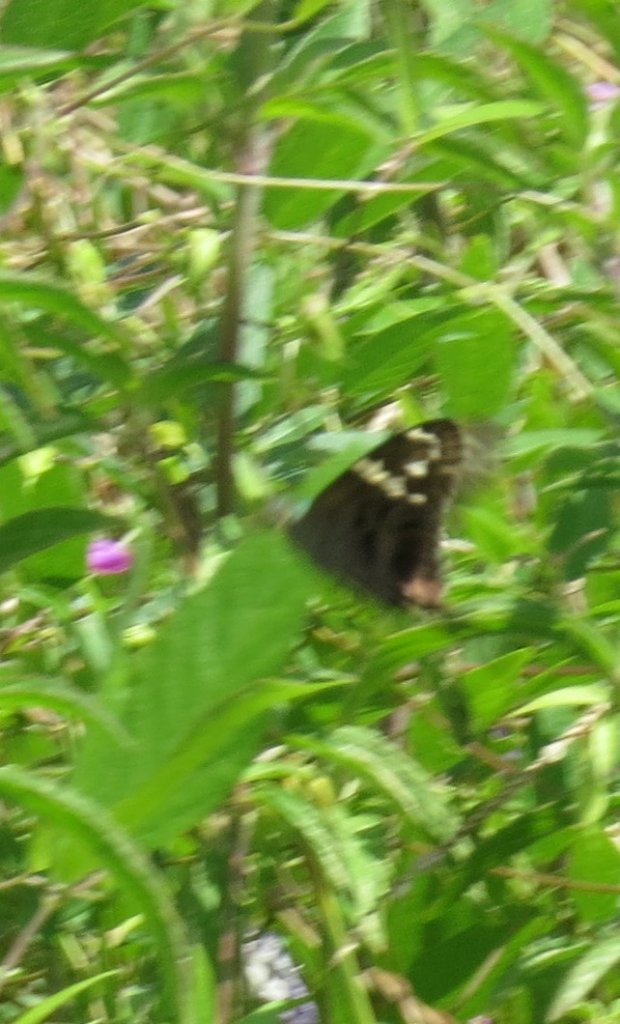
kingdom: Animalia
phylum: Arthropoda
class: Insecta
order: Lepidoptera
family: Hesperiidae
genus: Urbanus
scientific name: Urbanus proteus
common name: Long-tailed Skipper
